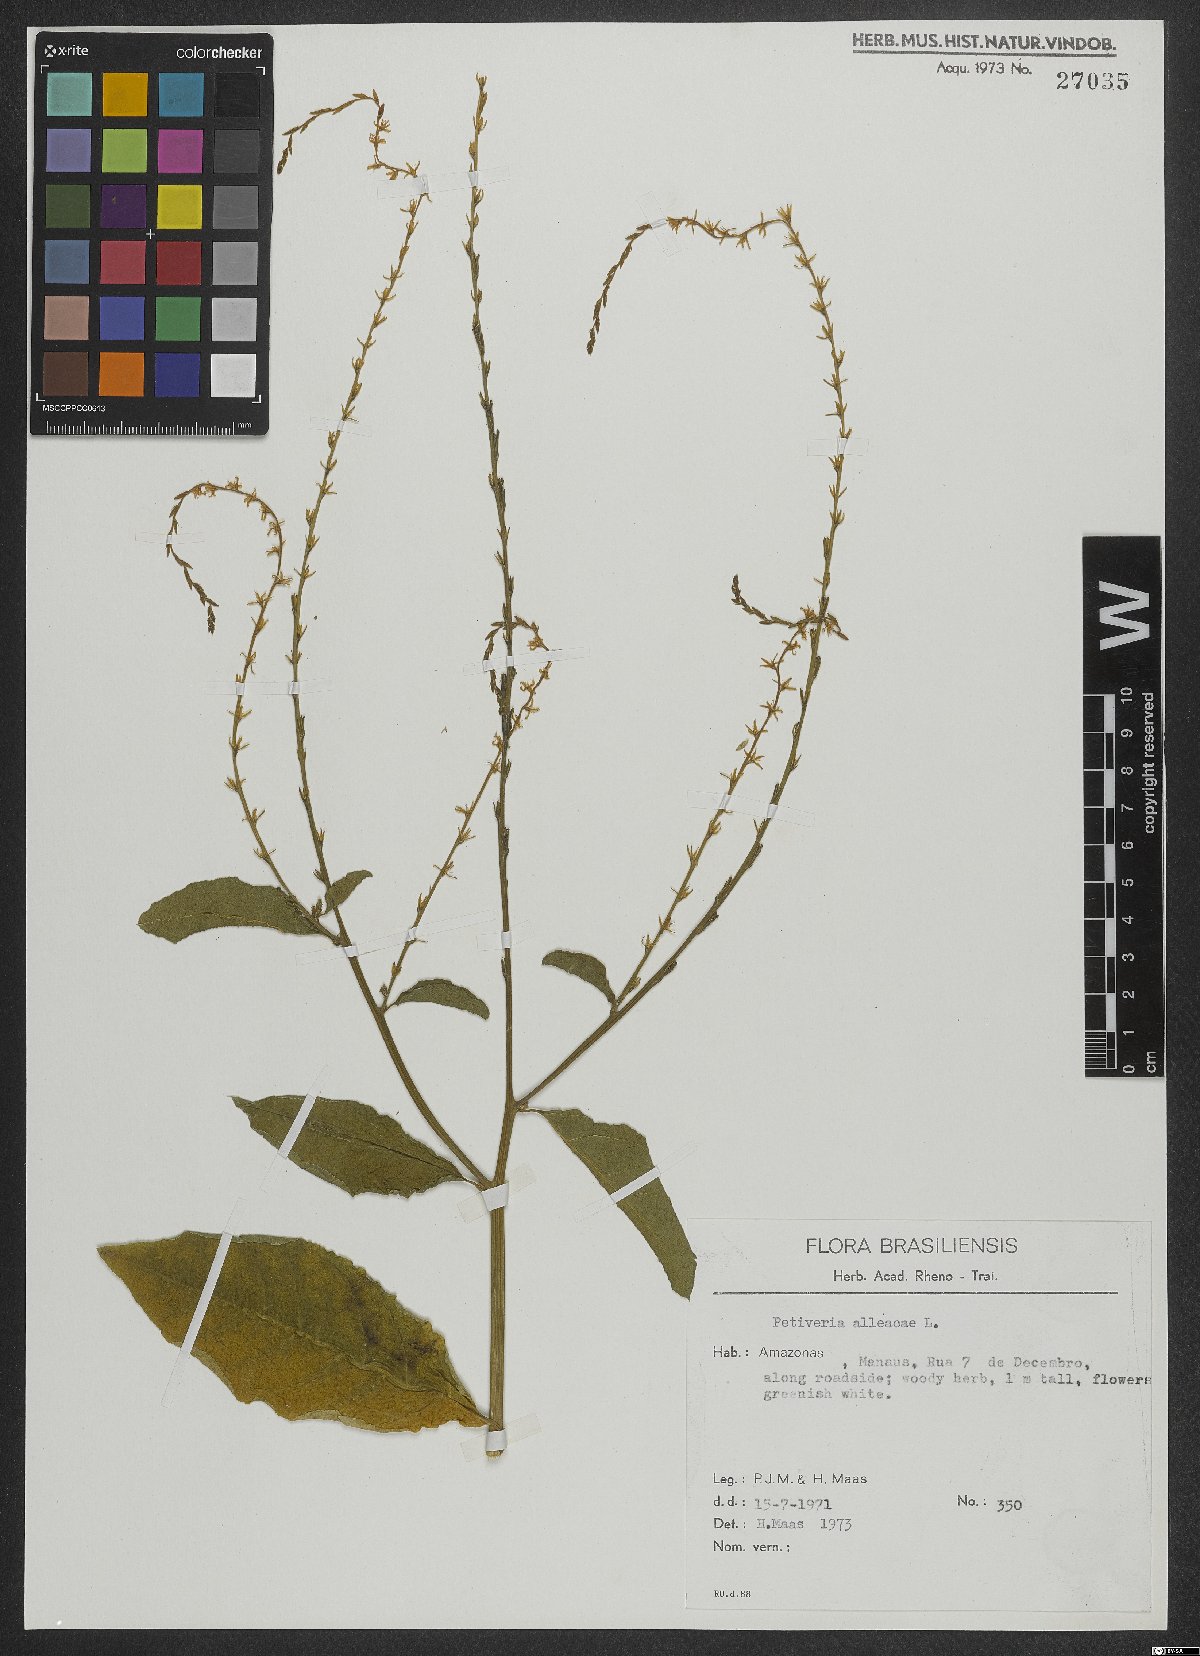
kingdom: Plantae
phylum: Tracheophyta
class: Magnoliopsida
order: Caryophyllales
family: Phytolaccaceae
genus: Petiveria
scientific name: Petiveria alliacea
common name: Garlicweed
